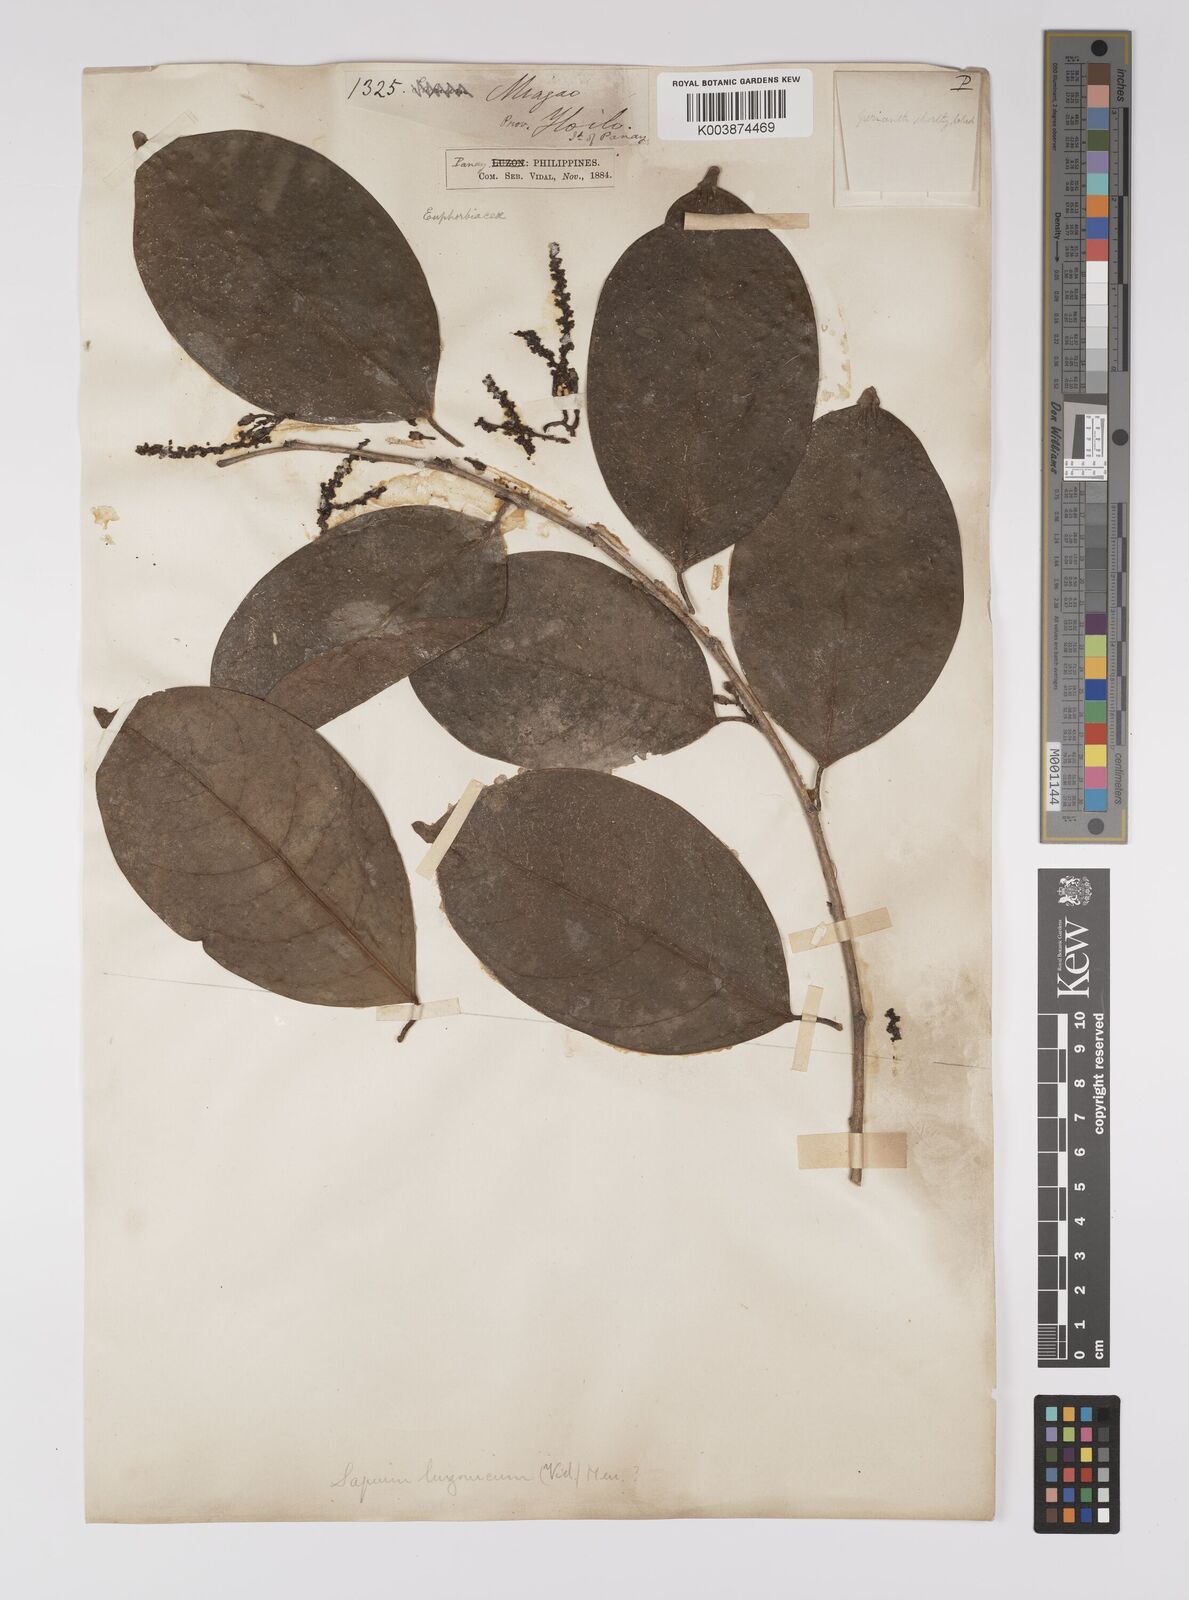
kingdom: Plantae
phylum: Tracheophyta
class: Magnoliopsida
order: Malpighiales
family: Euphorbiaceae
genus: Balakata
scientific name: Balakata luzonica
